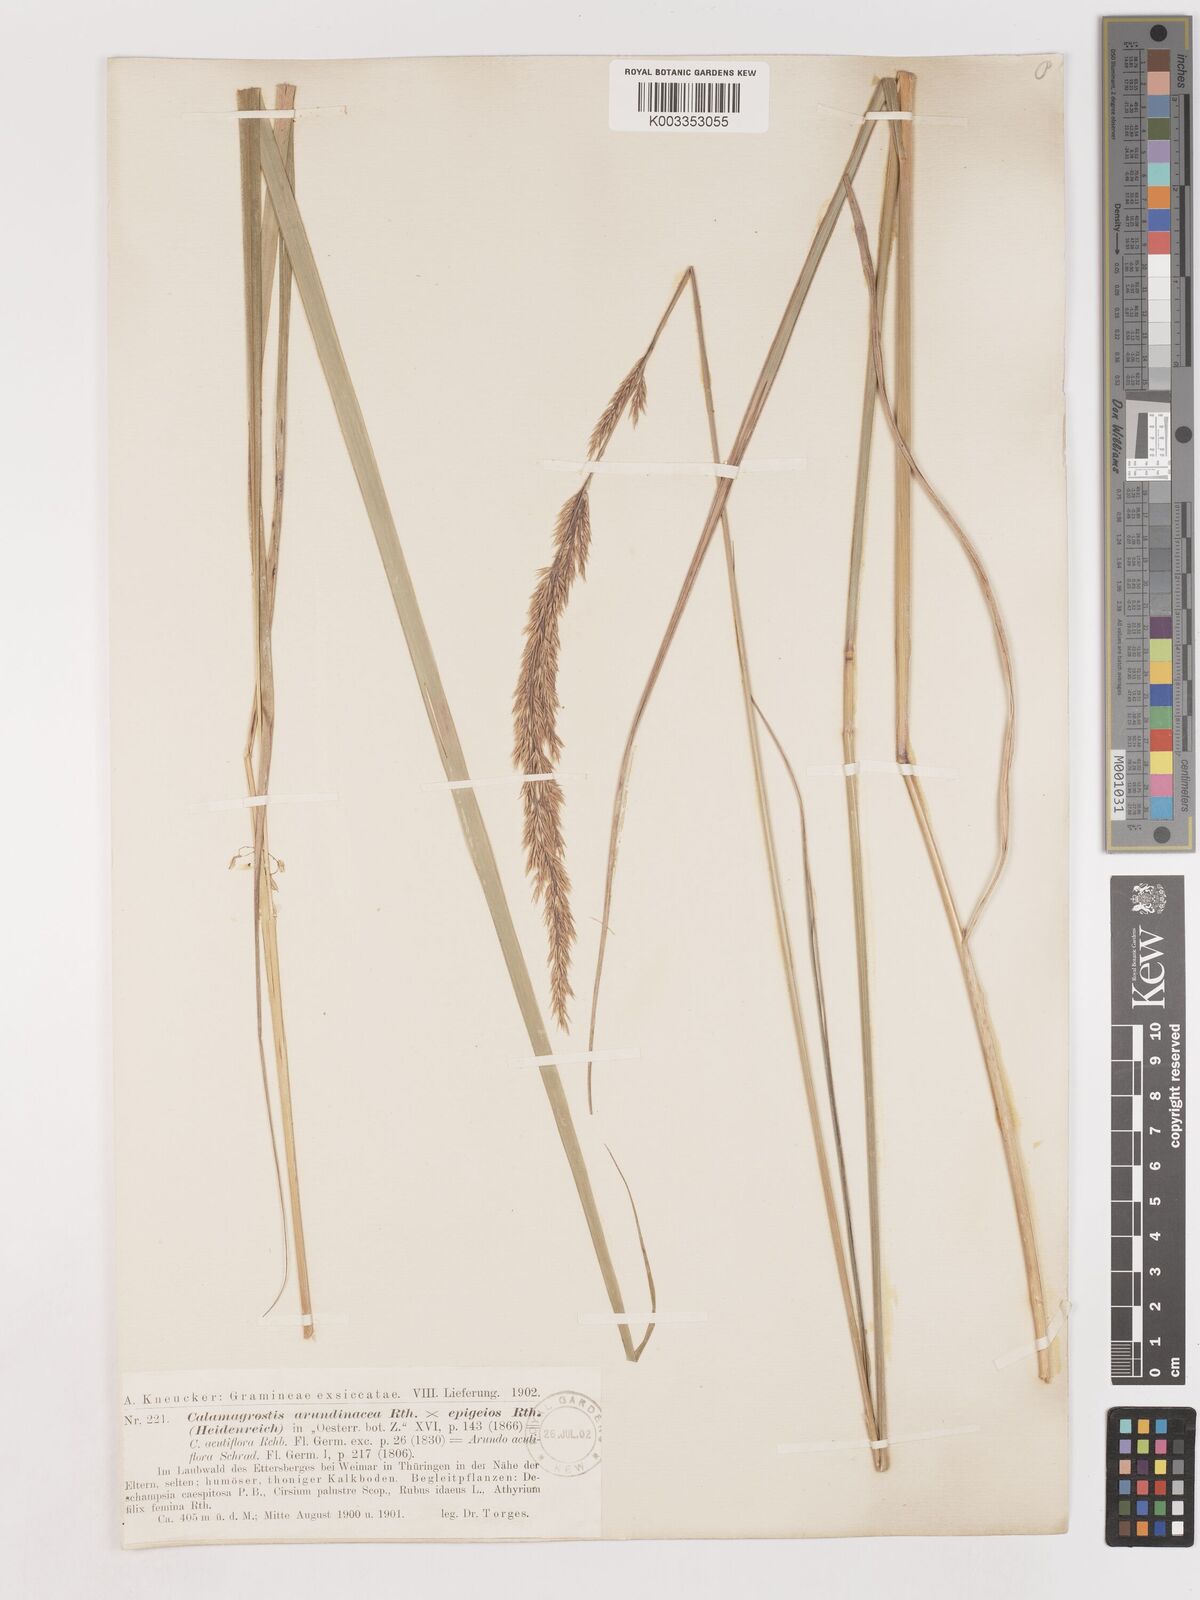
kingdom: Plantae
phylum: Tracheophyta
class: Liliopsida
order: Poales
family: Poaceae
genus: Calamagrostis
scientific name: Calamagrostis epigejos
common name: Wood small-reed
